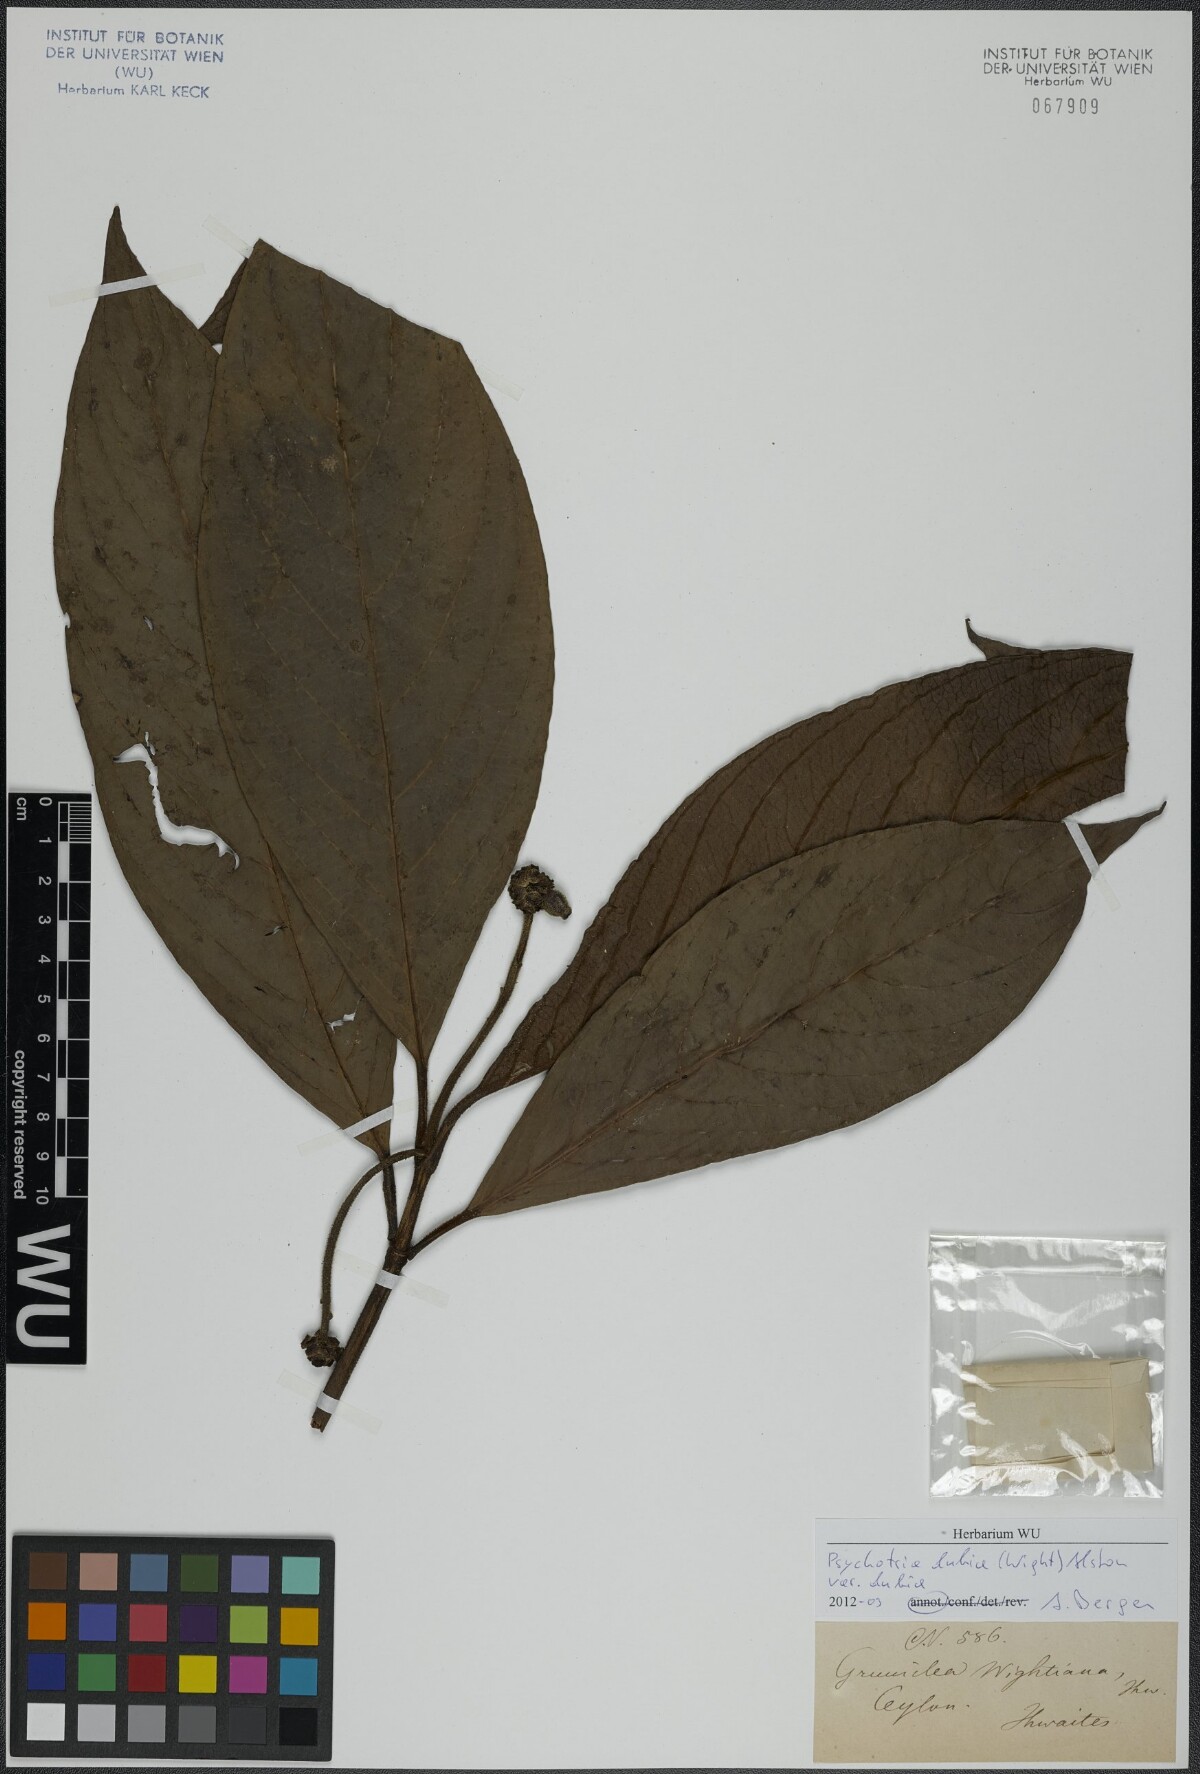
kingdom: Plantae
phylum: Tracheophyta
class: Magnoliopsida
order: Gentianales
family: Rubiaceae
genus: Psychotria
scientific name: Psychotria dubia
